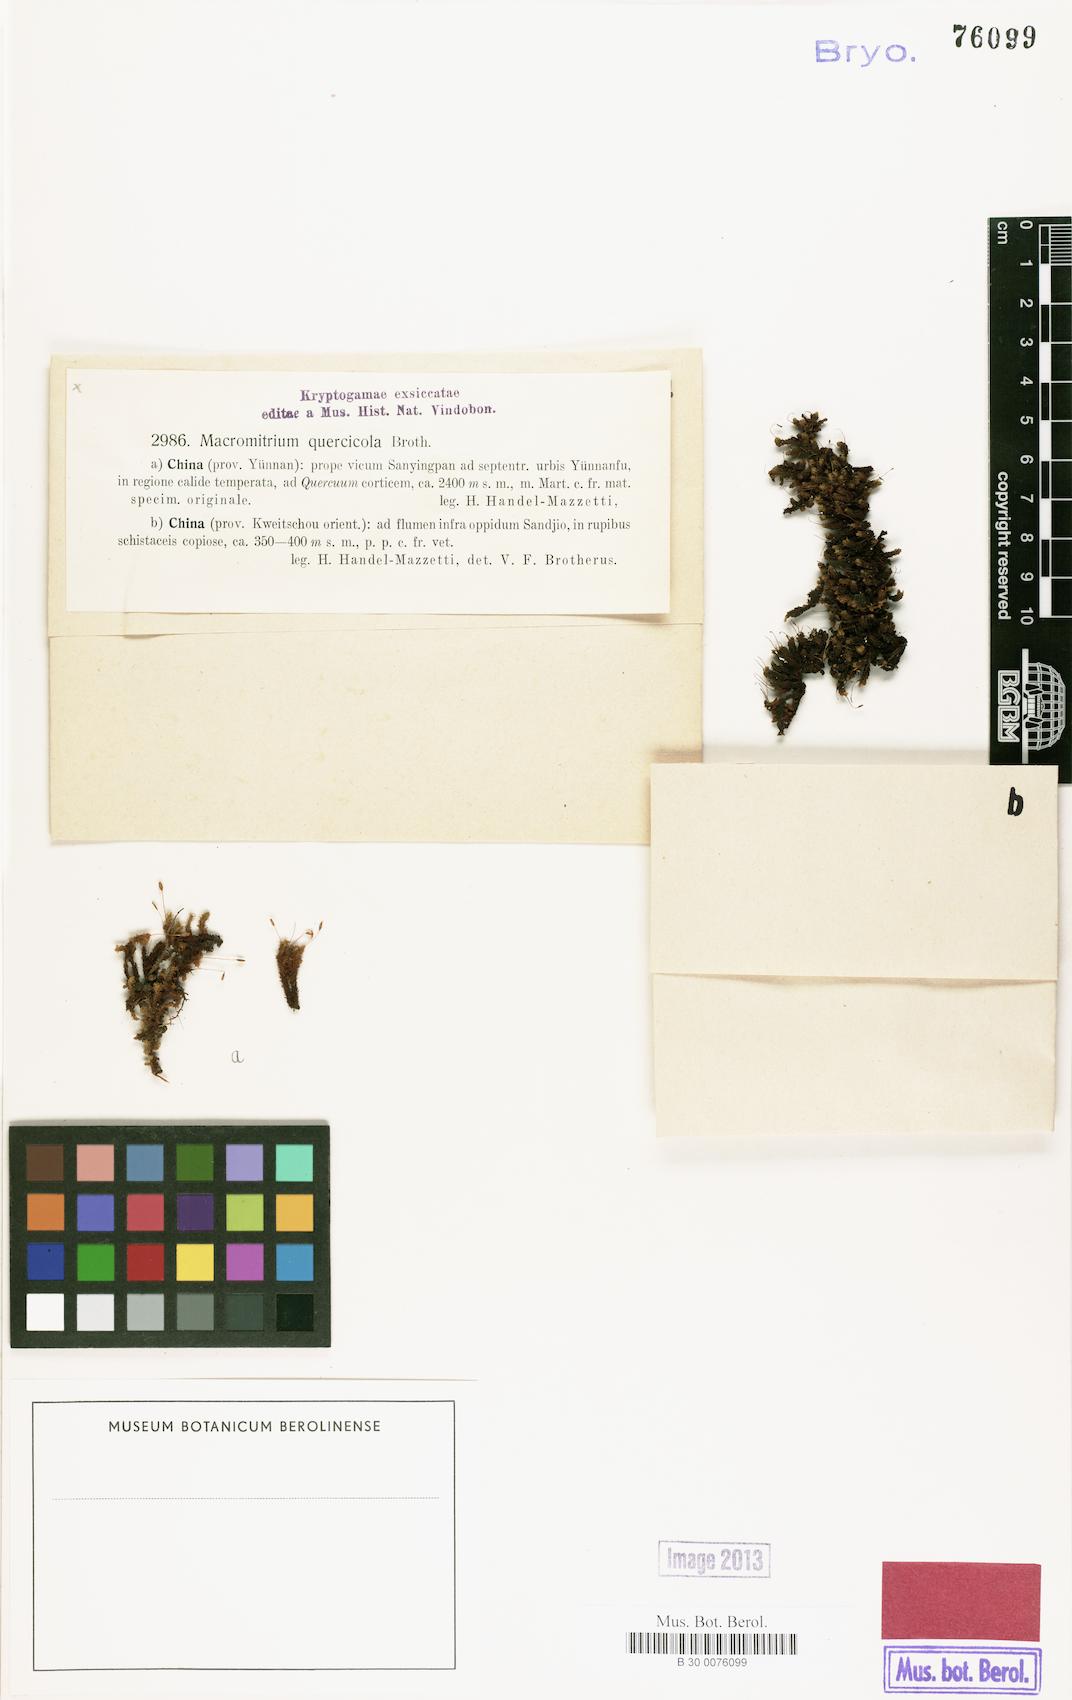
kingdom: Plantae
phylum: Bryophyta
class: Bryopsida
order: Orthotrichales
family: Orthotrichaceae
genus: Macromitrium
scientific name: Macromitrium ferriei
